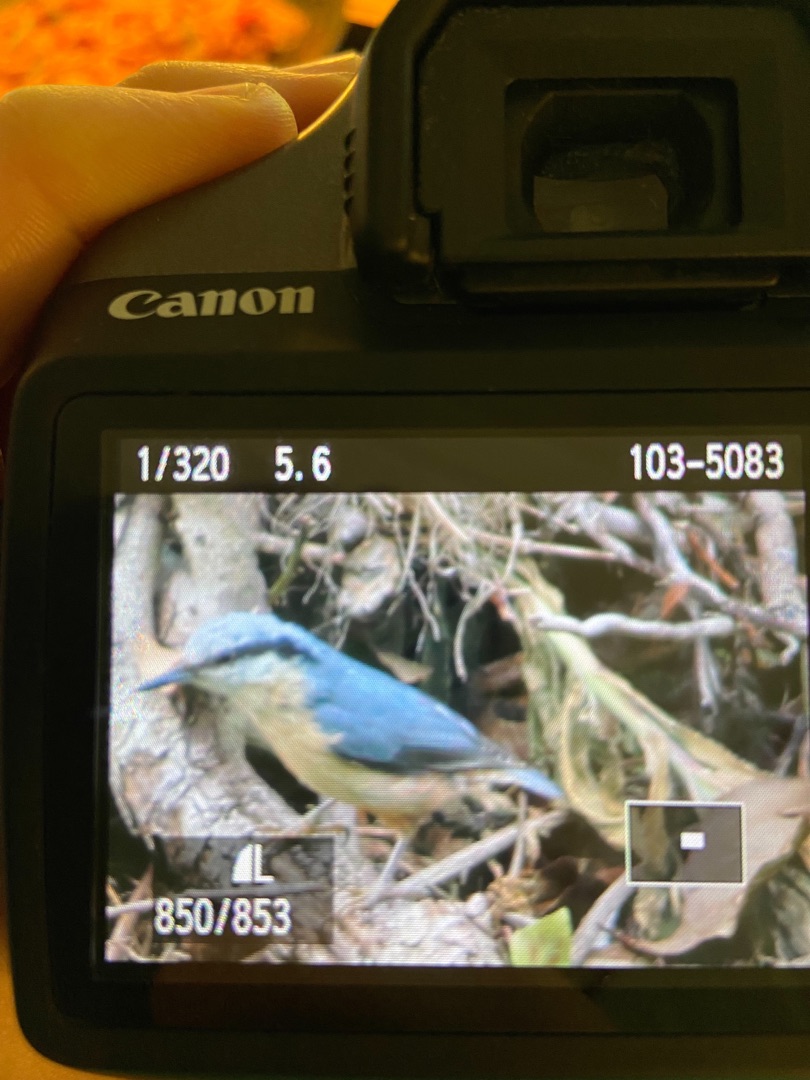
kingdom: Animalia
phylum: Chordata
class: Aves
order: Passeriformes
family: Sittidae
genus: Sitta
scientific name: Sitta europaea
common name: Spætmejse
